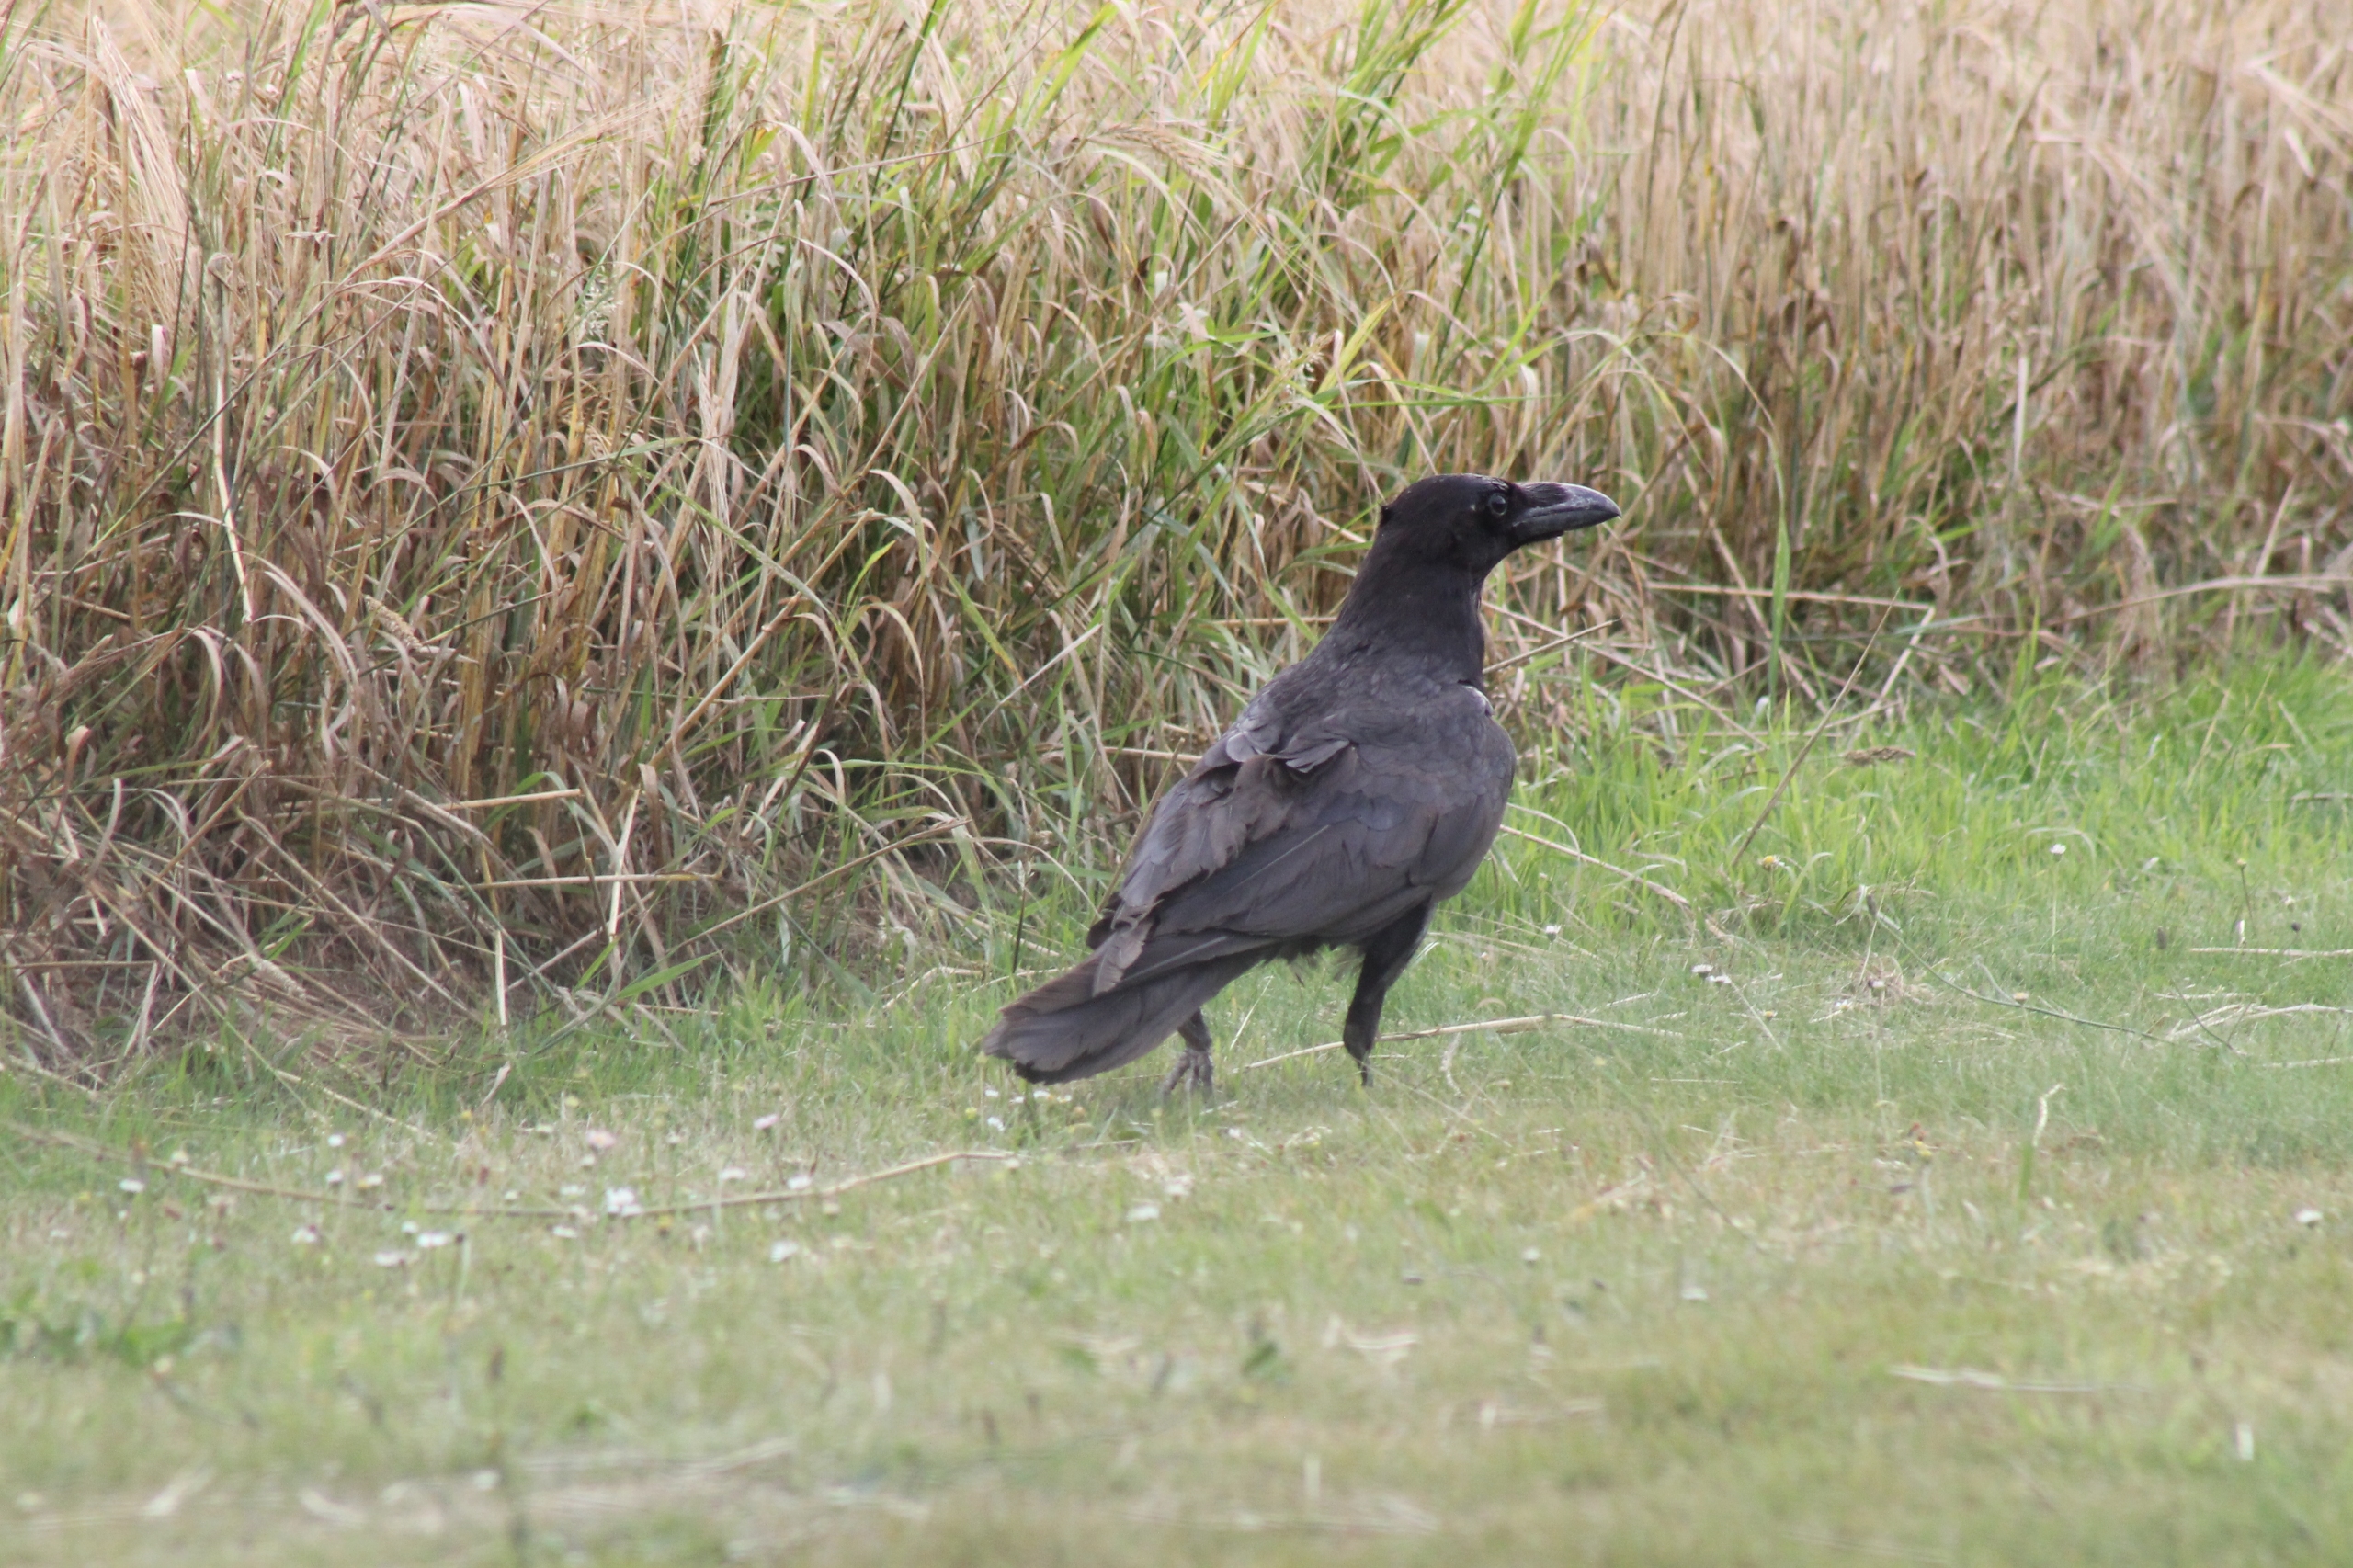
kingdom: Animalia
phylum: Chordata
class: Aves
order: Passeriformes
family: Corvidae
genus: Corvus
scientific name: Corvus corax
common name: Ravn
